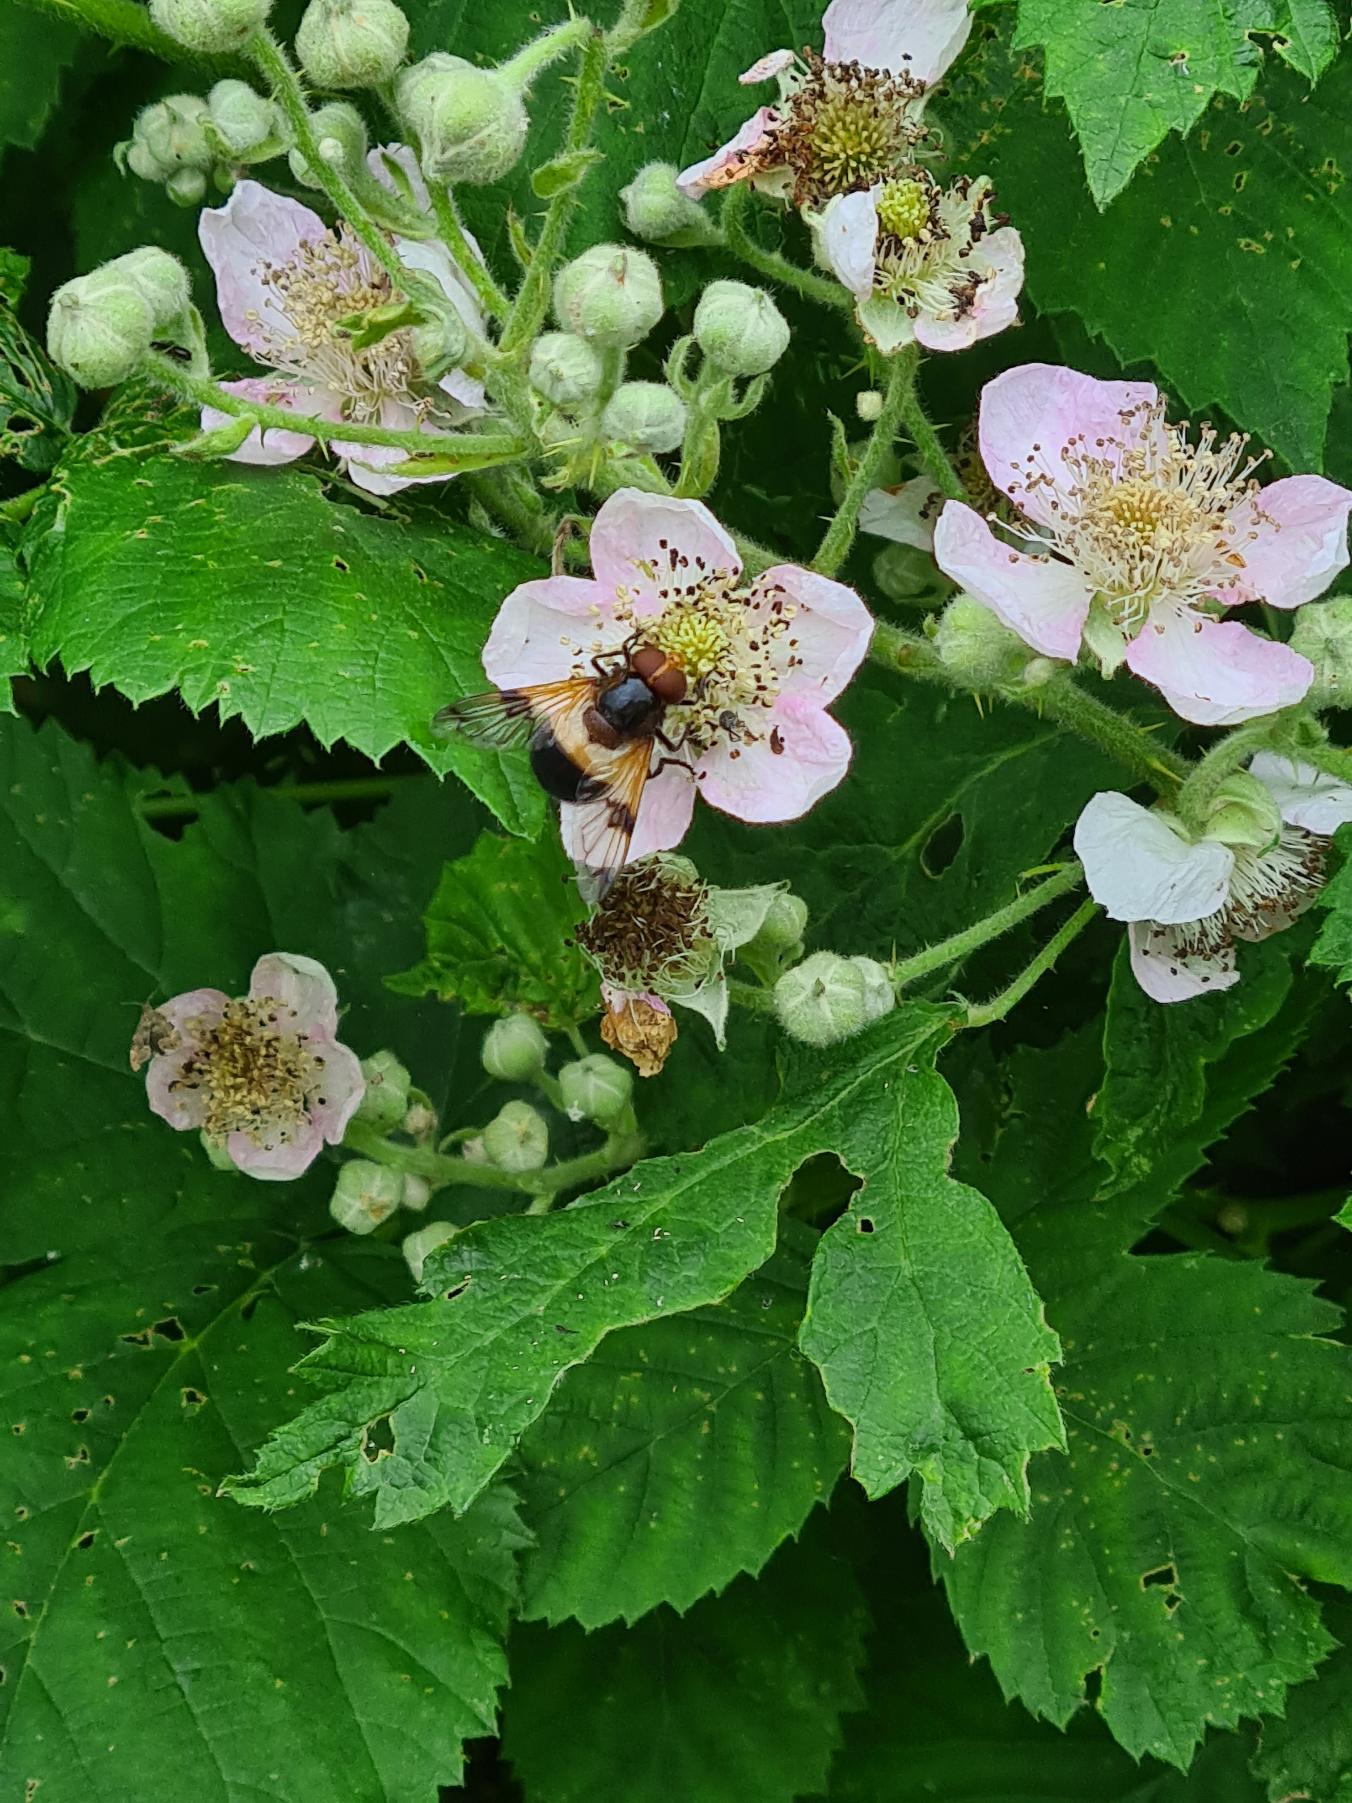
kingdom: Animalia
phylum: Arthropoda
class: Insecta
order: Diptera
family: Syrphidae
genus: Volucella
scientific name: Volucella pellucens
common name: Hvidbåndet humlesvirreflue
